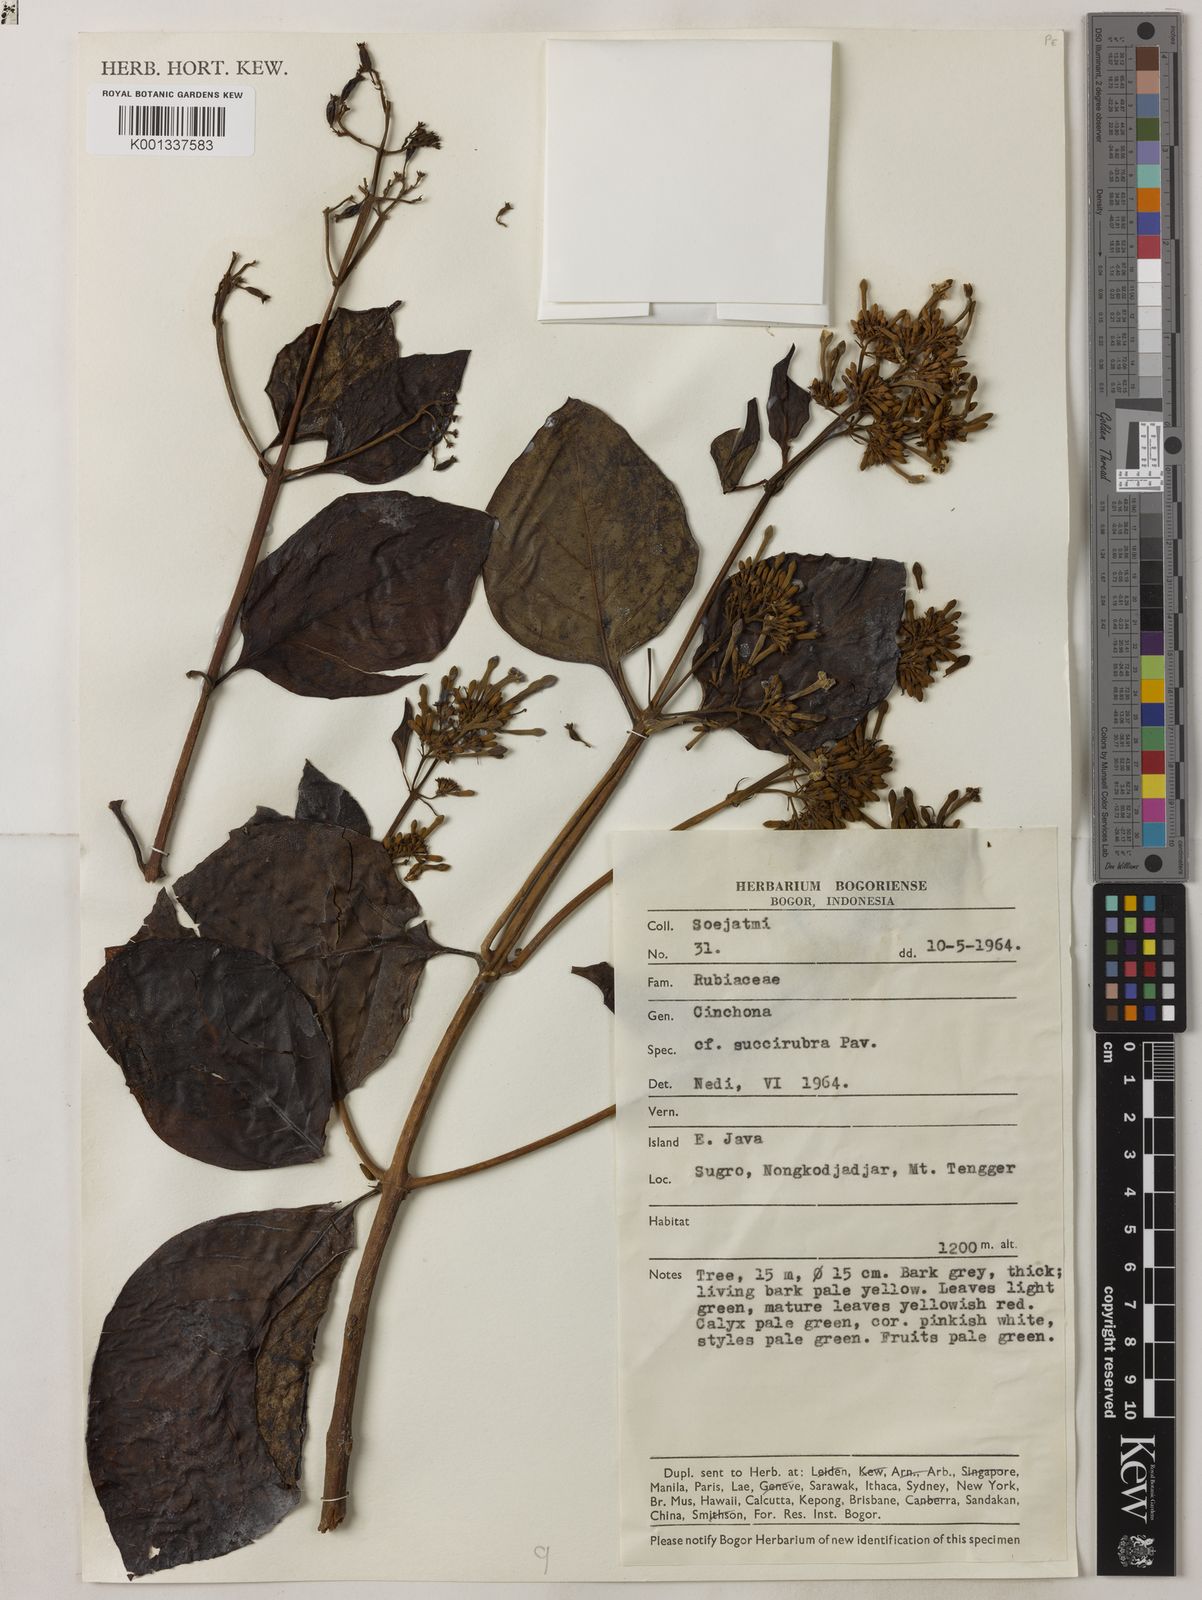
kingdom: Plantae
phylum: Tracheophyta
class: Magnoliopsida
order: Gentianales
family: Rubiaceae
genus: Cinchona
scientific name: Cinchona pubescens
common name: Quinine
